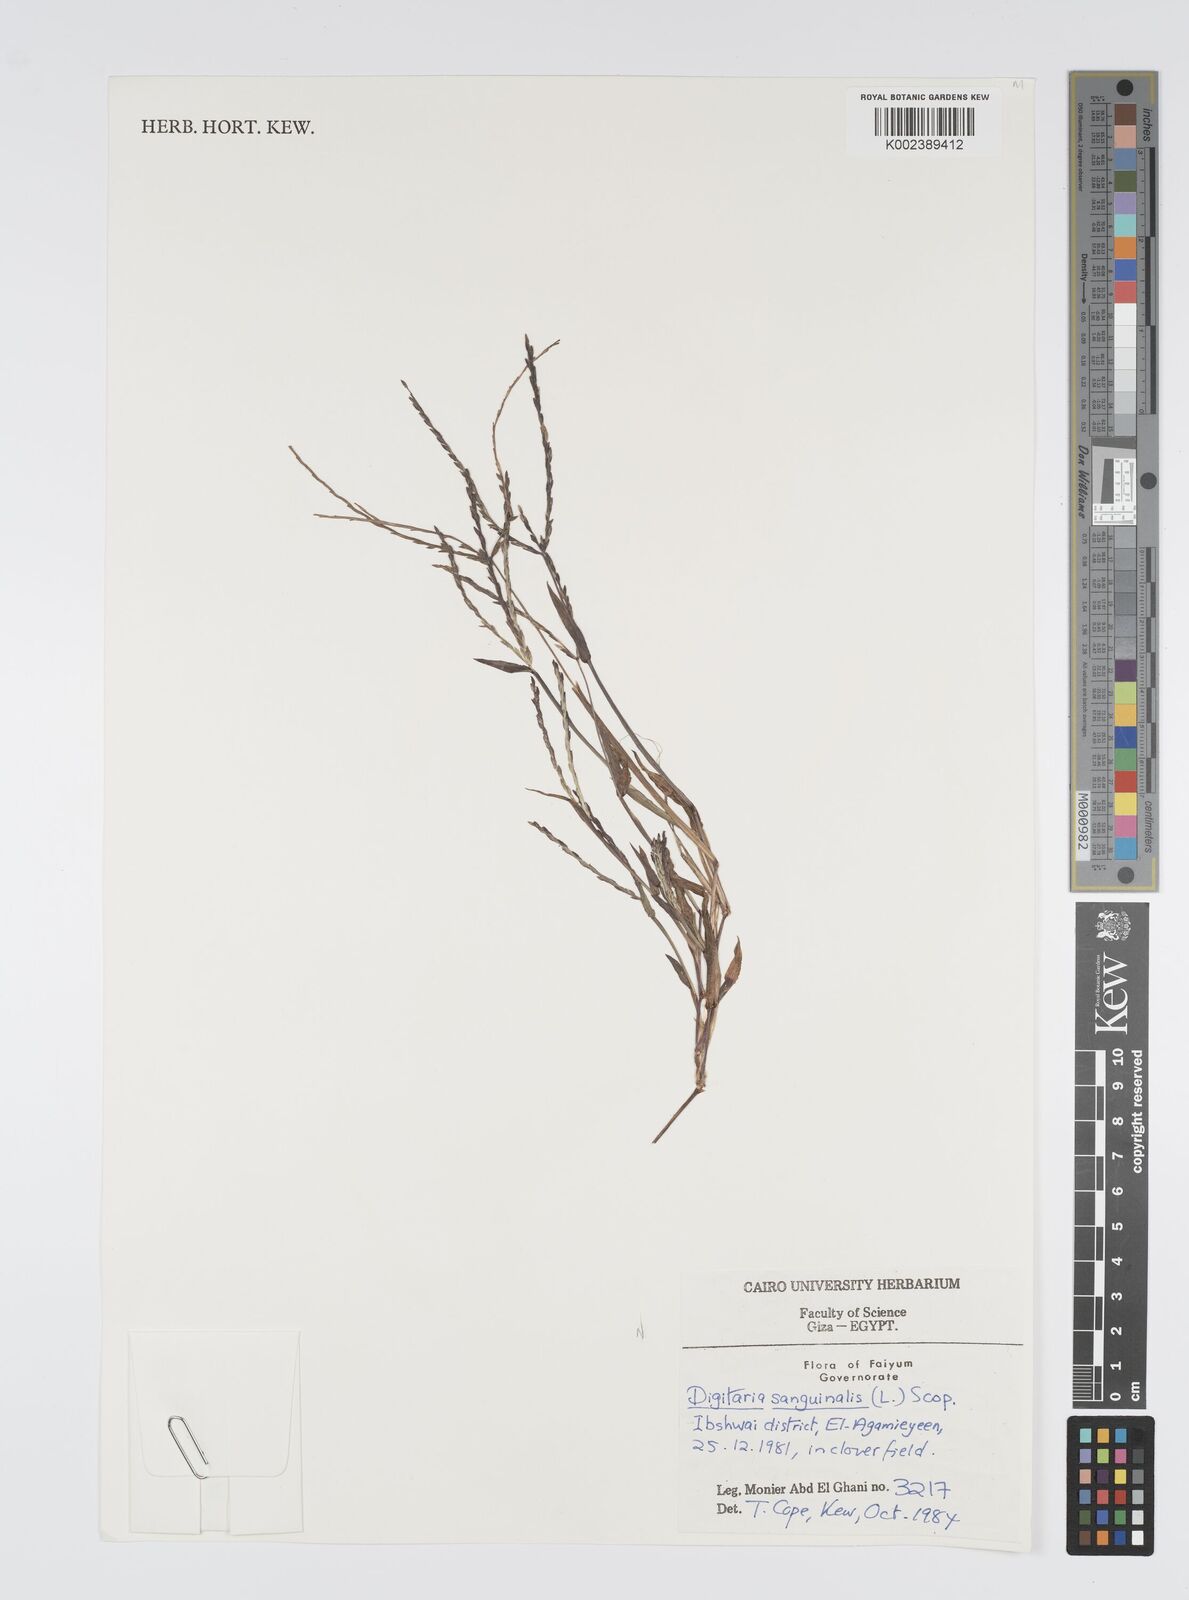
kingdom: Plantae
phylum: Tracheophyta
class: Liliopsida
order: Poales
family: Poaceae
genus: Digitaria
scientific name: Digitaria sanguinalis
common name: Hairy crabgrass
